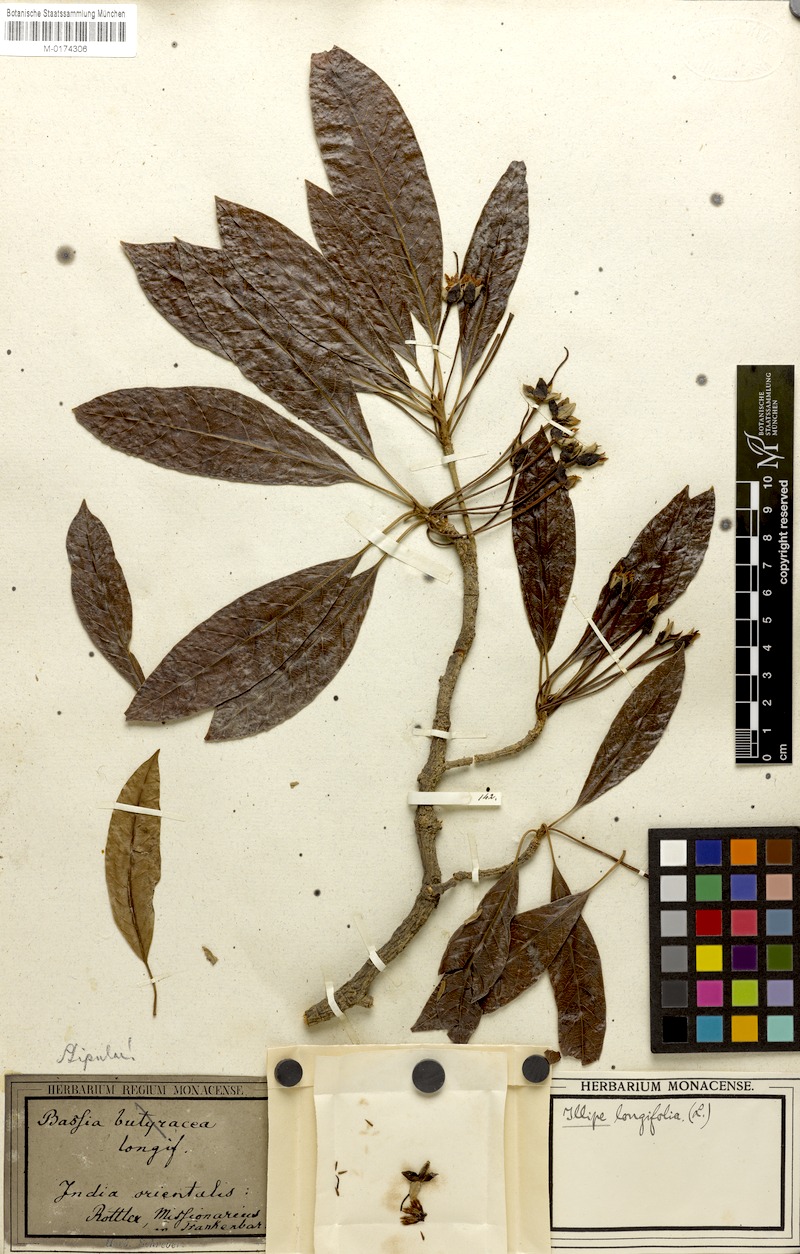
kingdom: Plantae
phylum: Tracheophyta
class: Magnoliopsida
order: Ericales
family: Sapotaceae
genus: Madhuca
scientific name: Madhuca longifolia
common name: Mowra-buttertree
